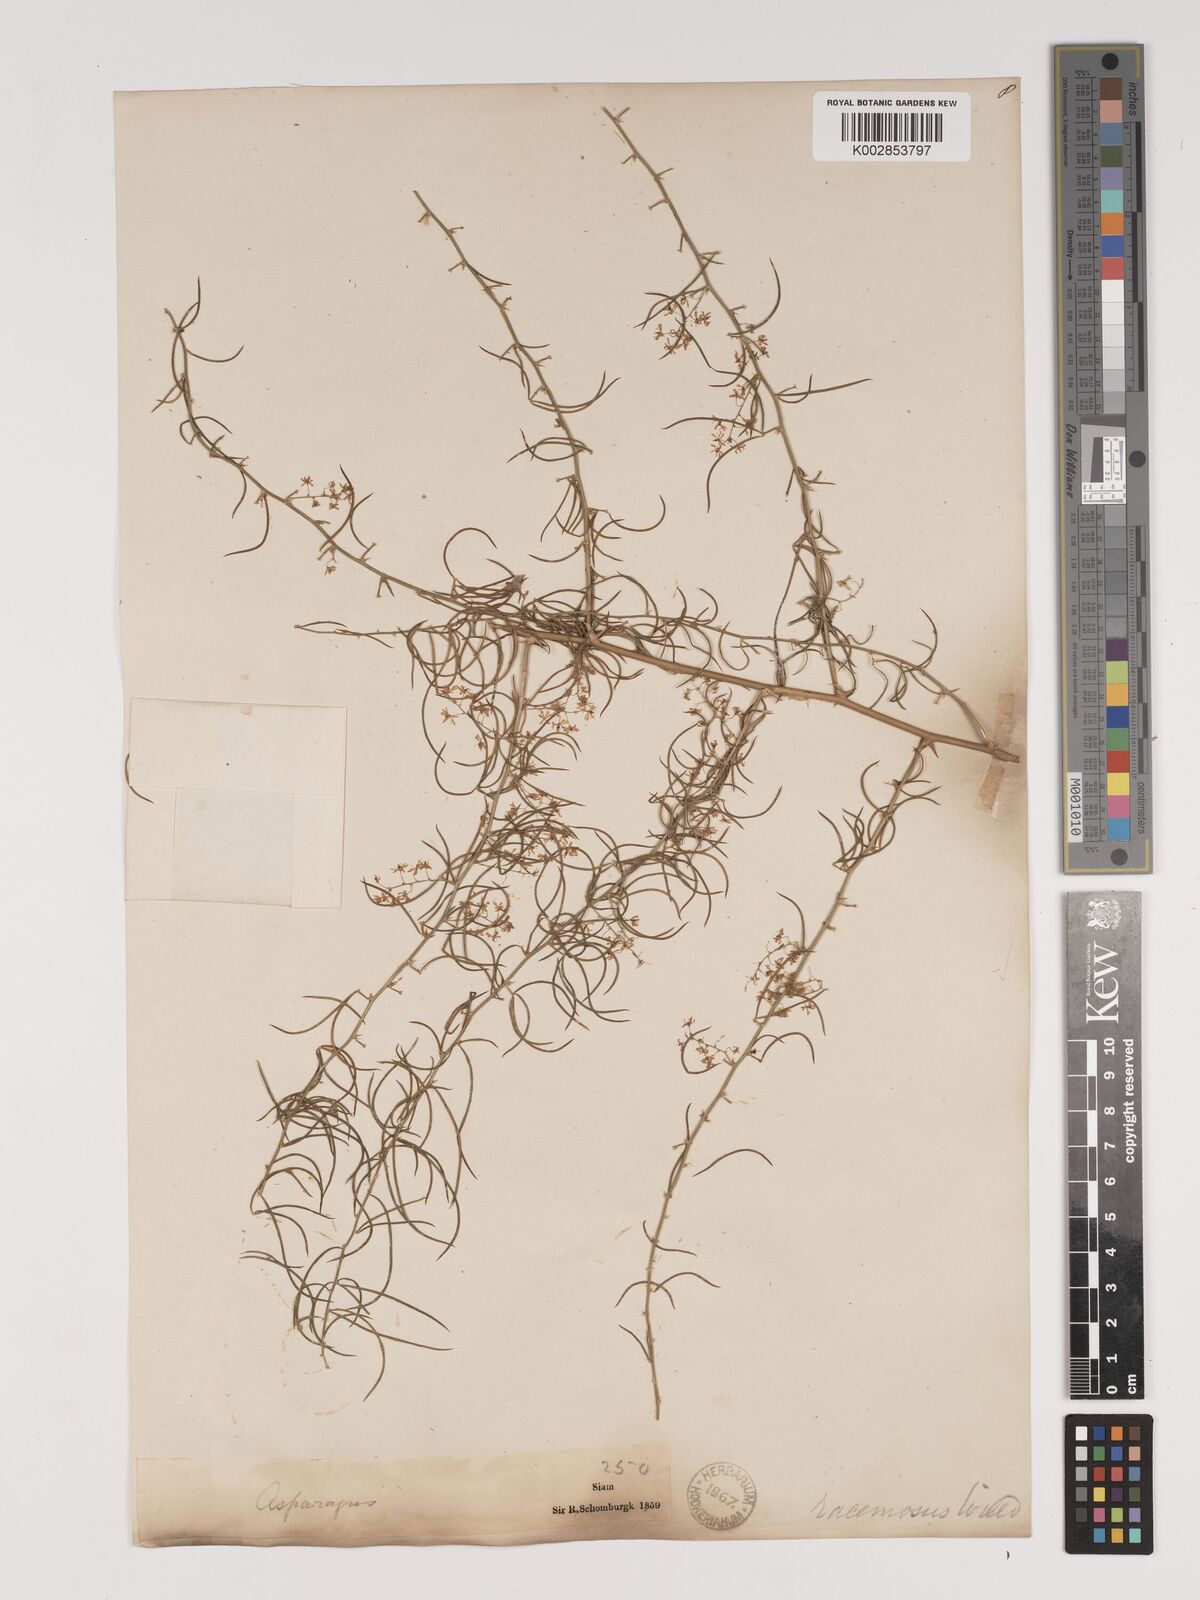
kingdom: Plantae
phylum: Tracheophyta
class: Liliopsida
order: Asparagales
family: Asparagaceae
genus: Asparagus
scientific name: Asparagus racemosus
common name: Asparagus-fern
